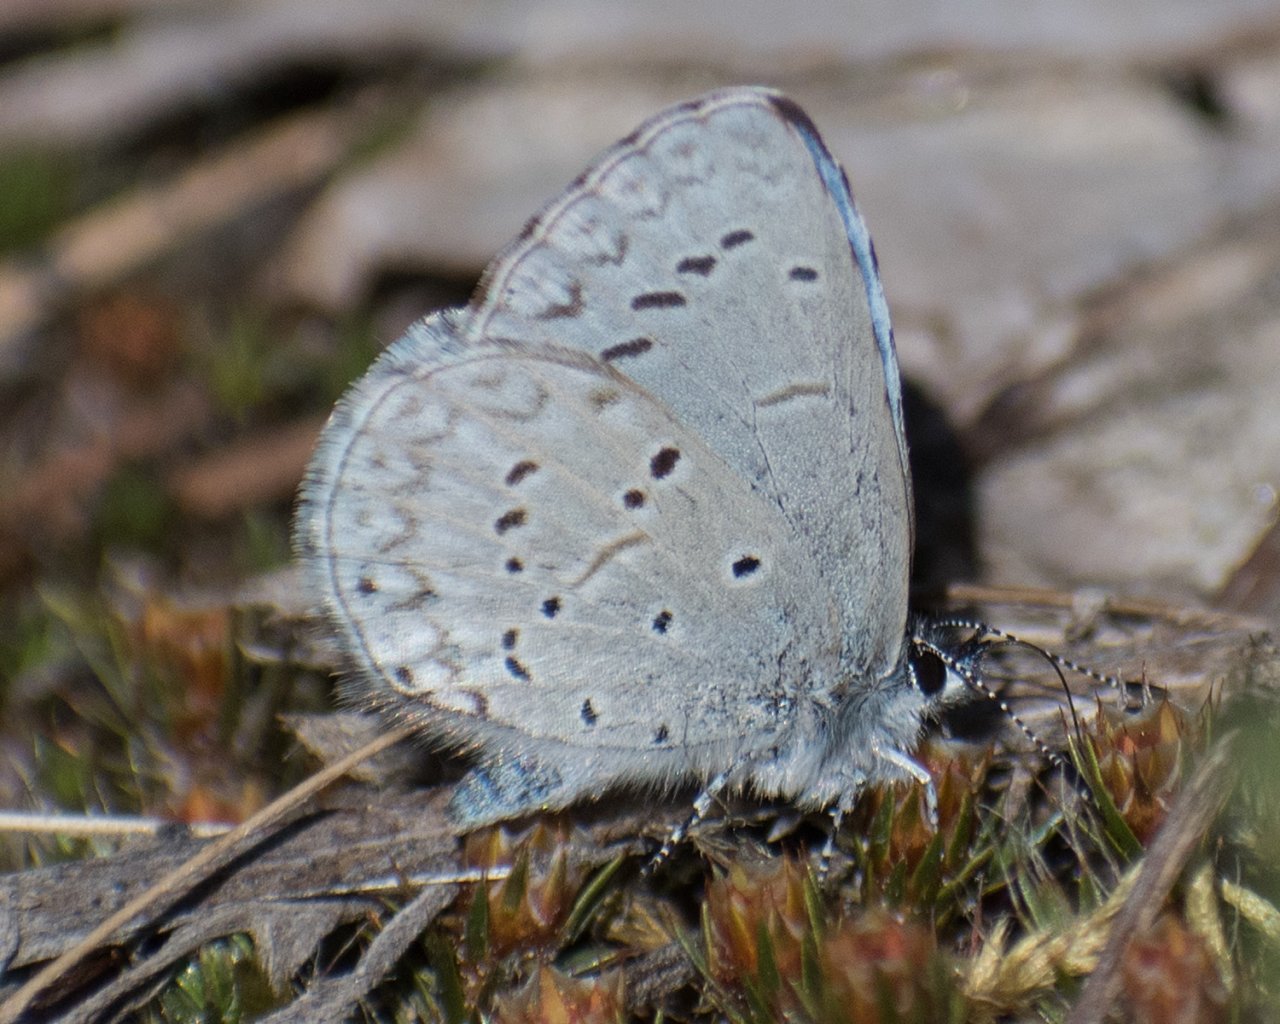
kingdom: Animalia
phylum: Arthropoda
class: Insecta
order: Lepidoptera
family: Lycaenidae
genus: Celastrina
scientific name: Celastrina ladon
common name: Echo Azure
